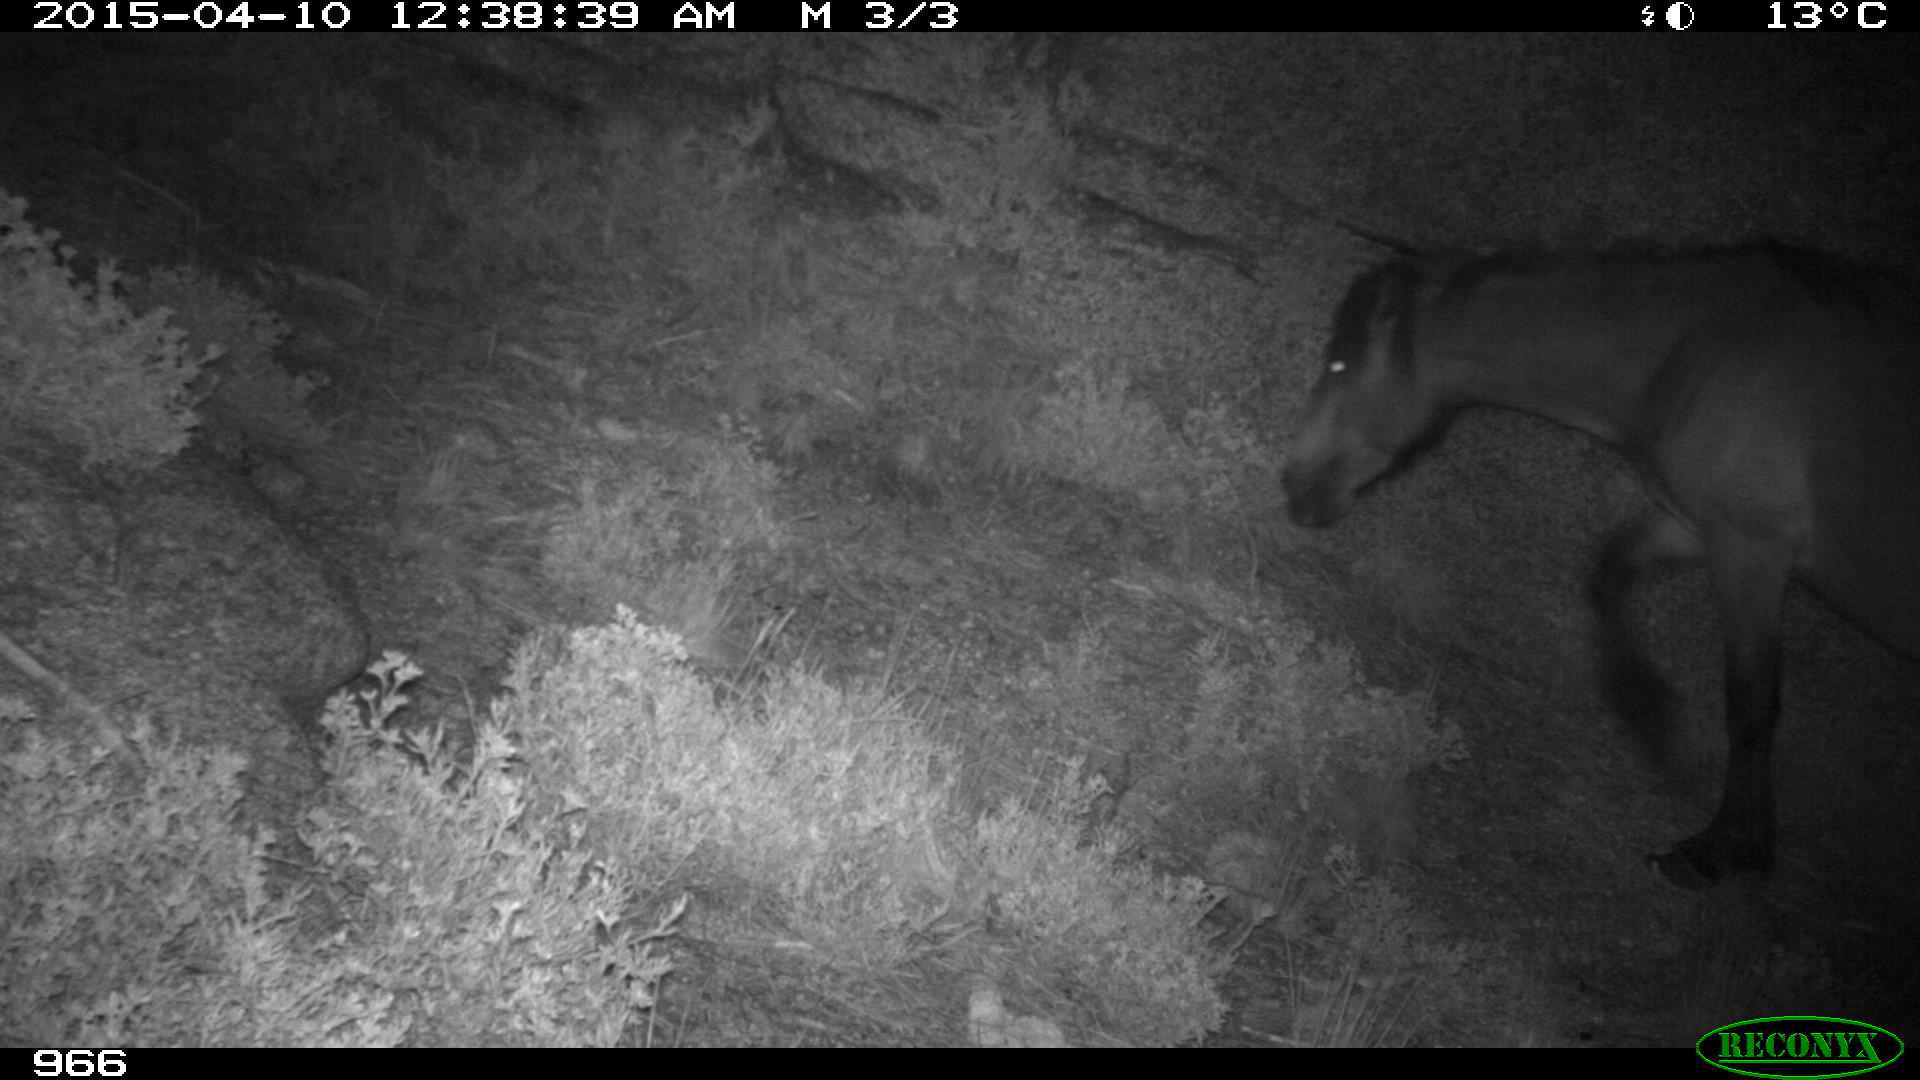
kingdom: Animalia
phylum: Chordata
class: Mammalia
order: Perissodactyla
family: Equidae
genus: Equus
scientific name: Equus caballus
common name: Horse
